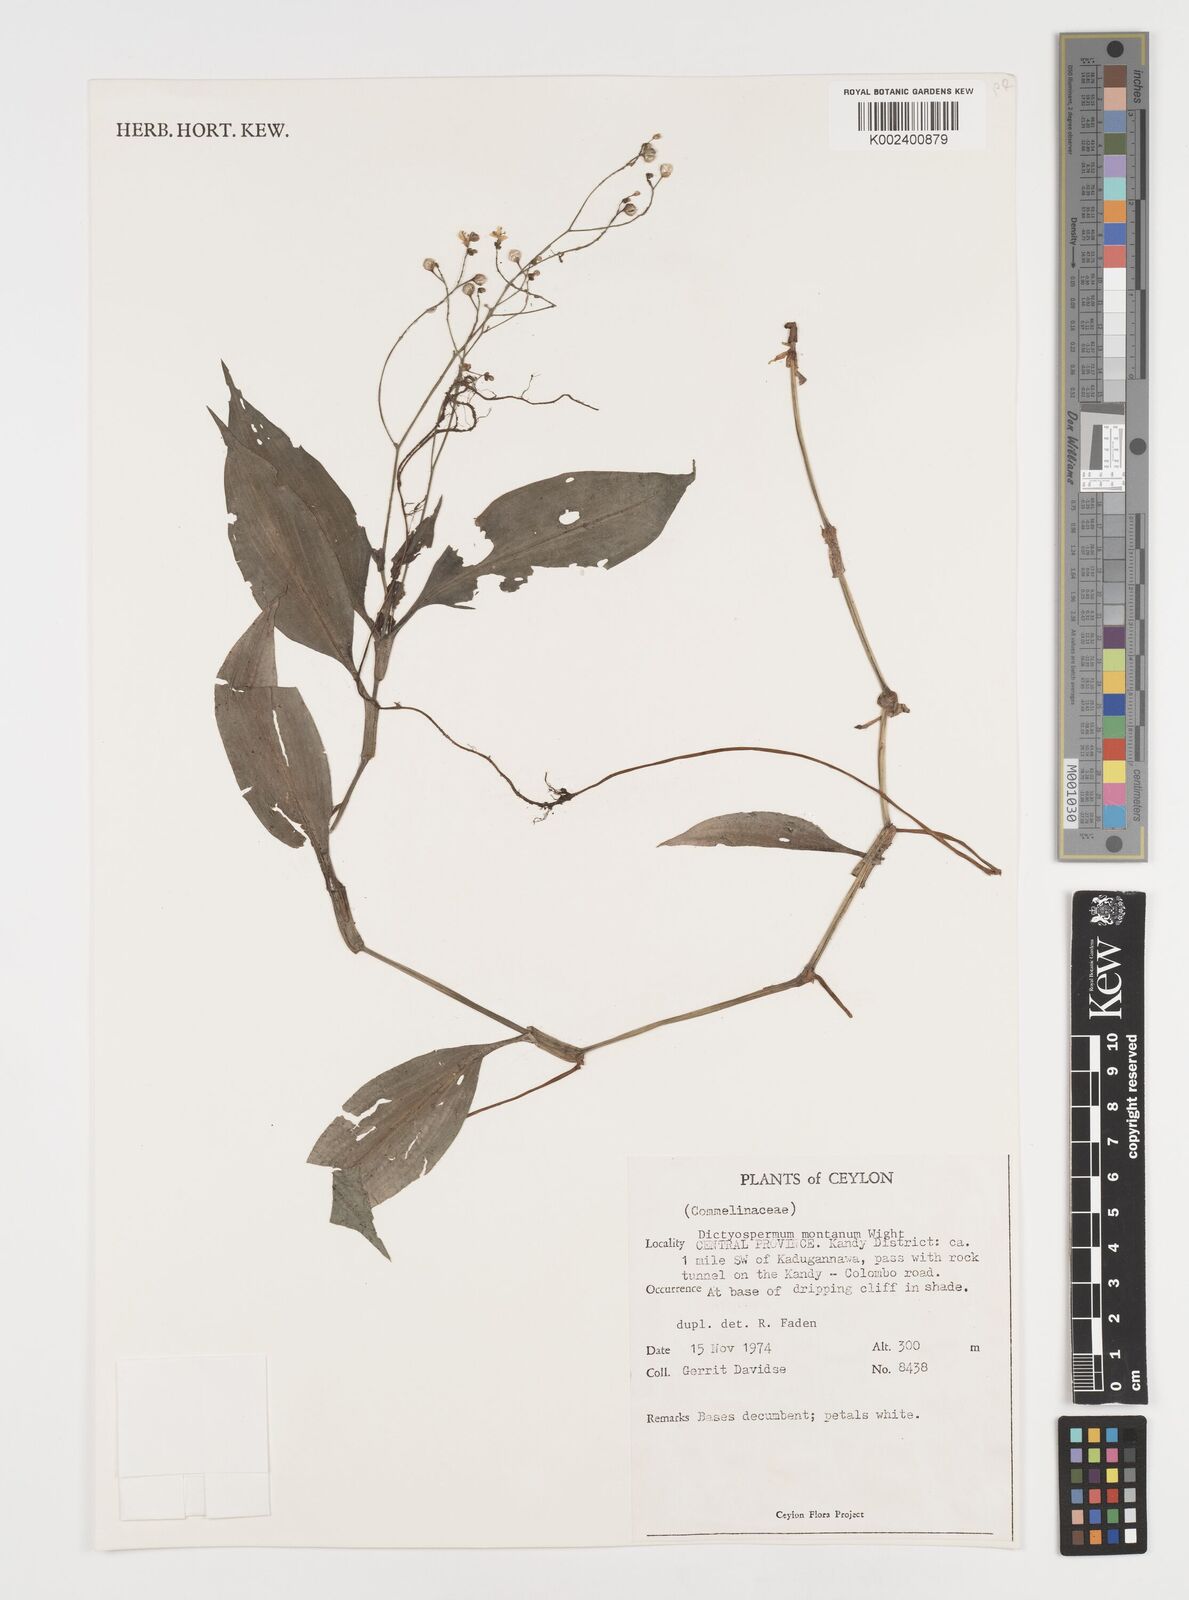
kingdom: Plantae
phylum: Tracheophyta
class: Liliopsida
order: Commelinales
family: Commelinaceae
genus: Dictyospermum
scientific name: Dictyospermum montanum
